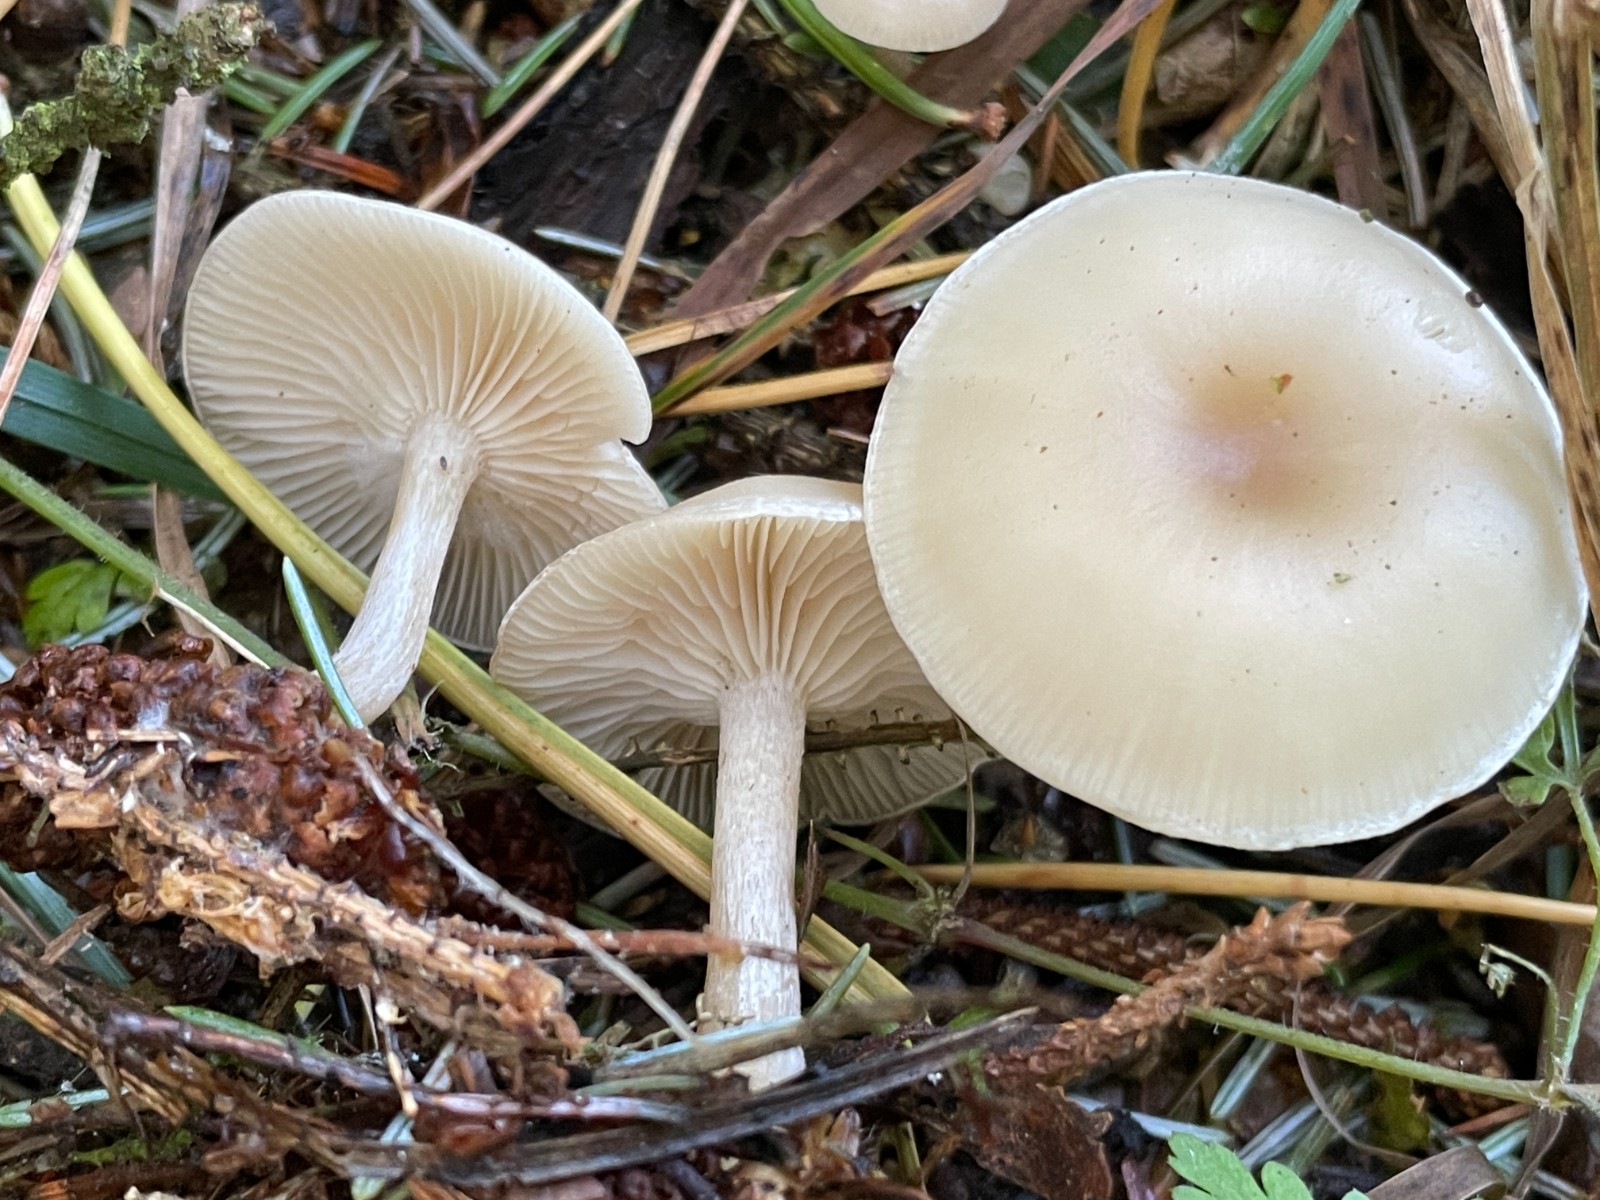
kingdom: Fungi
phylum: Basidiomycota
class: Agaricomycetes
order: Agaricales
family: Tricholomataceae
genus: Clitocybe
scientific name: Clitocybe
